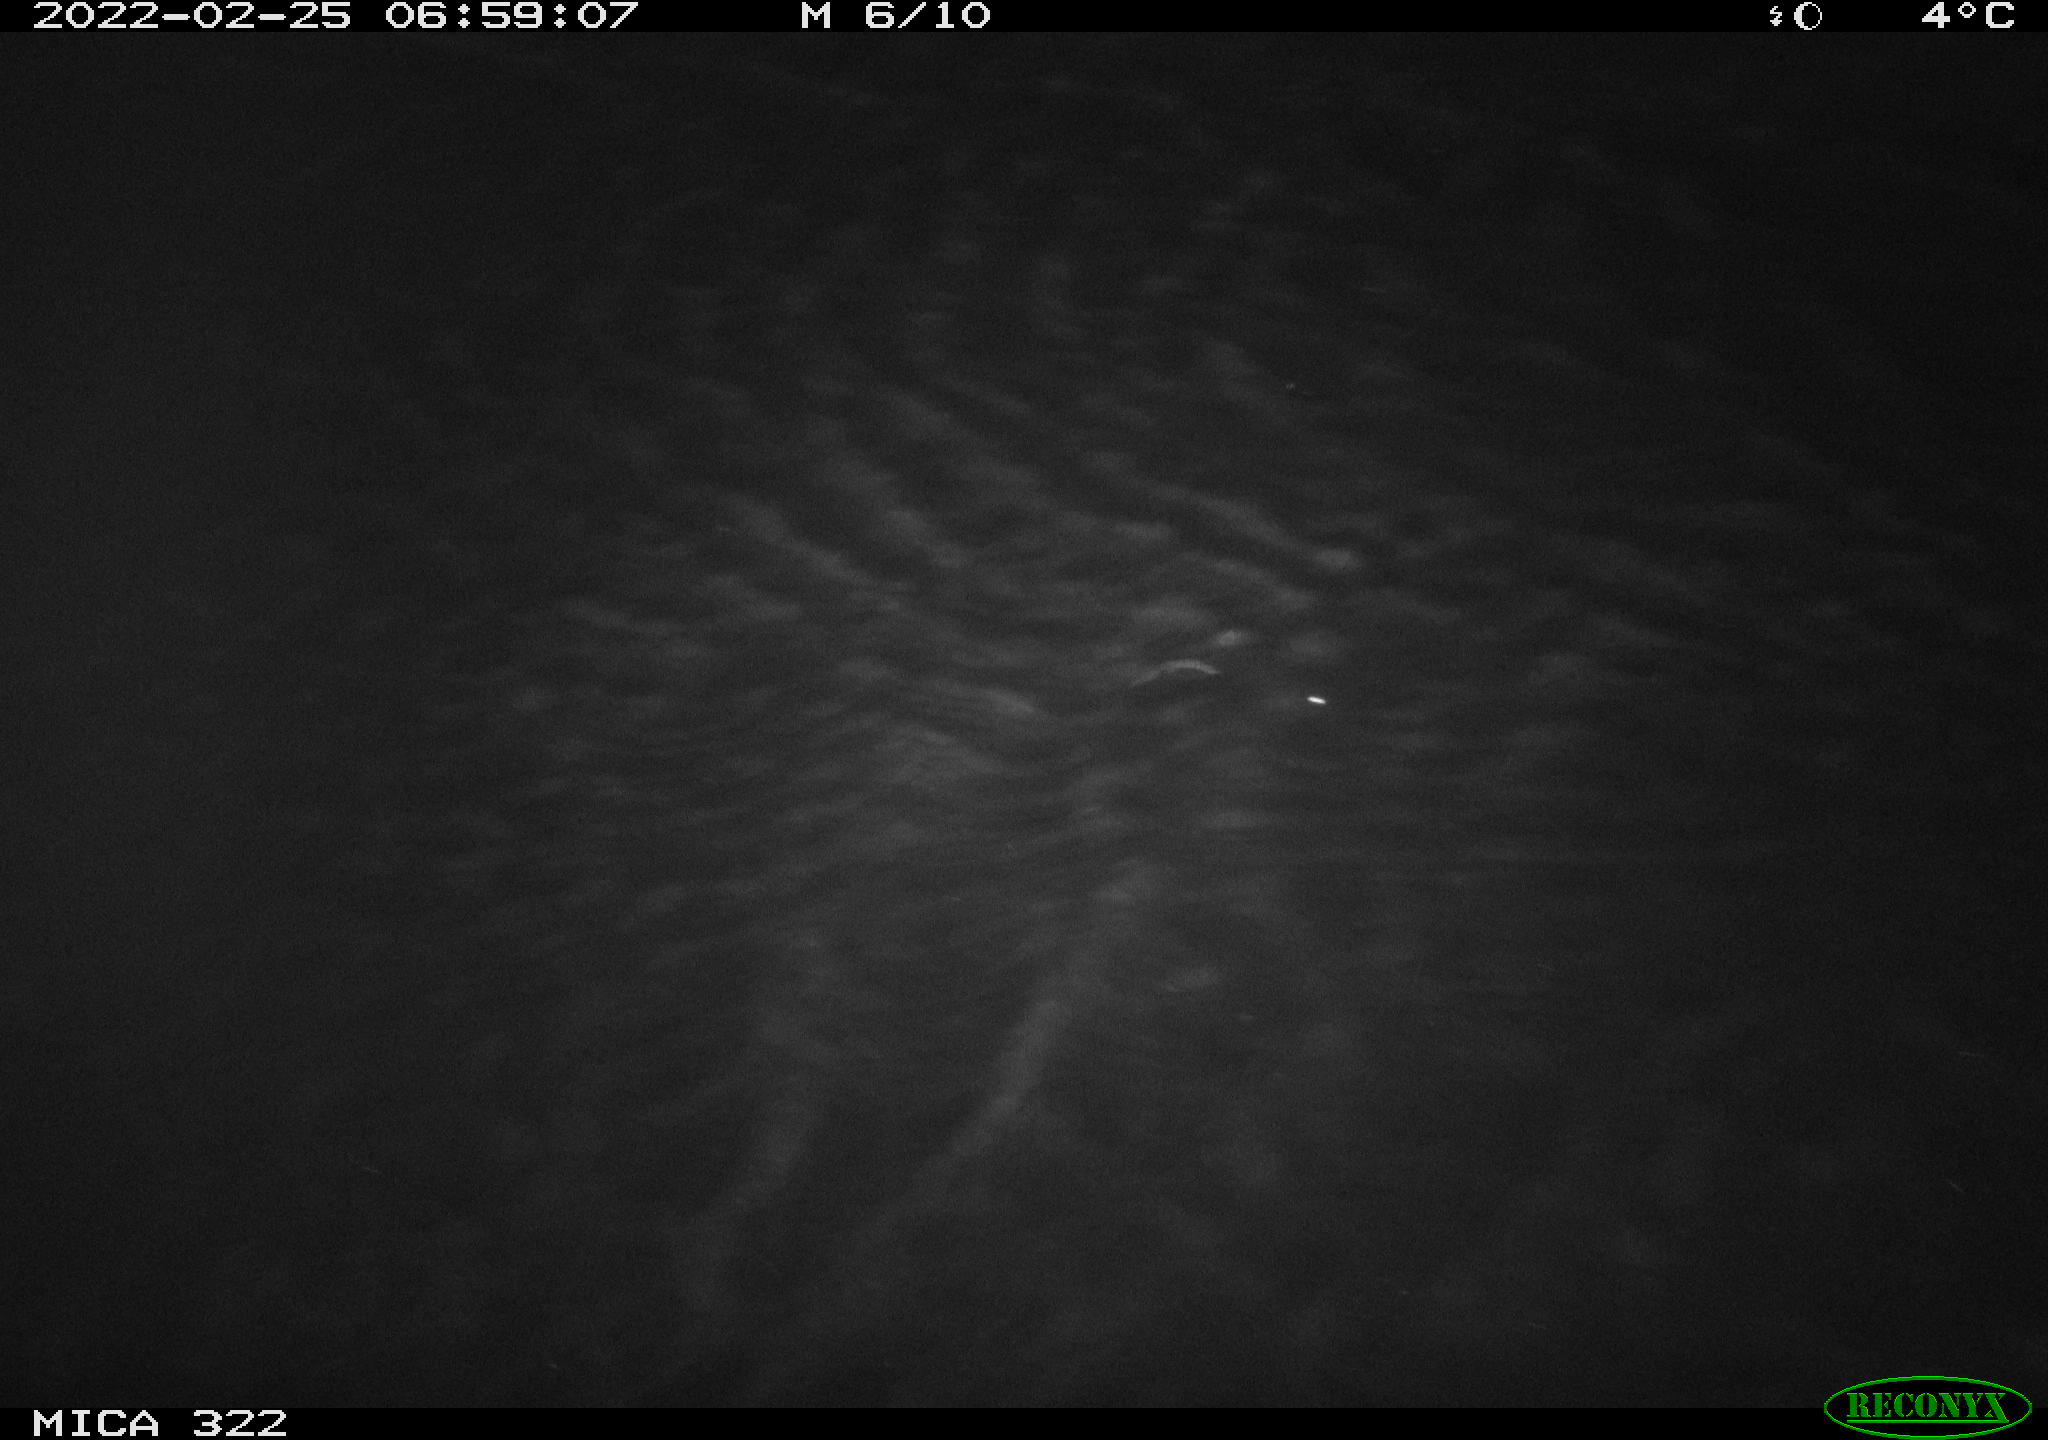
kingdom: Animalia
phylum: Chordata
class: Aves
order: Gruiformes
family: Rallidae
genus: Gallinula
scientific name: Gallinula chloropus
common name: Common moorhen
